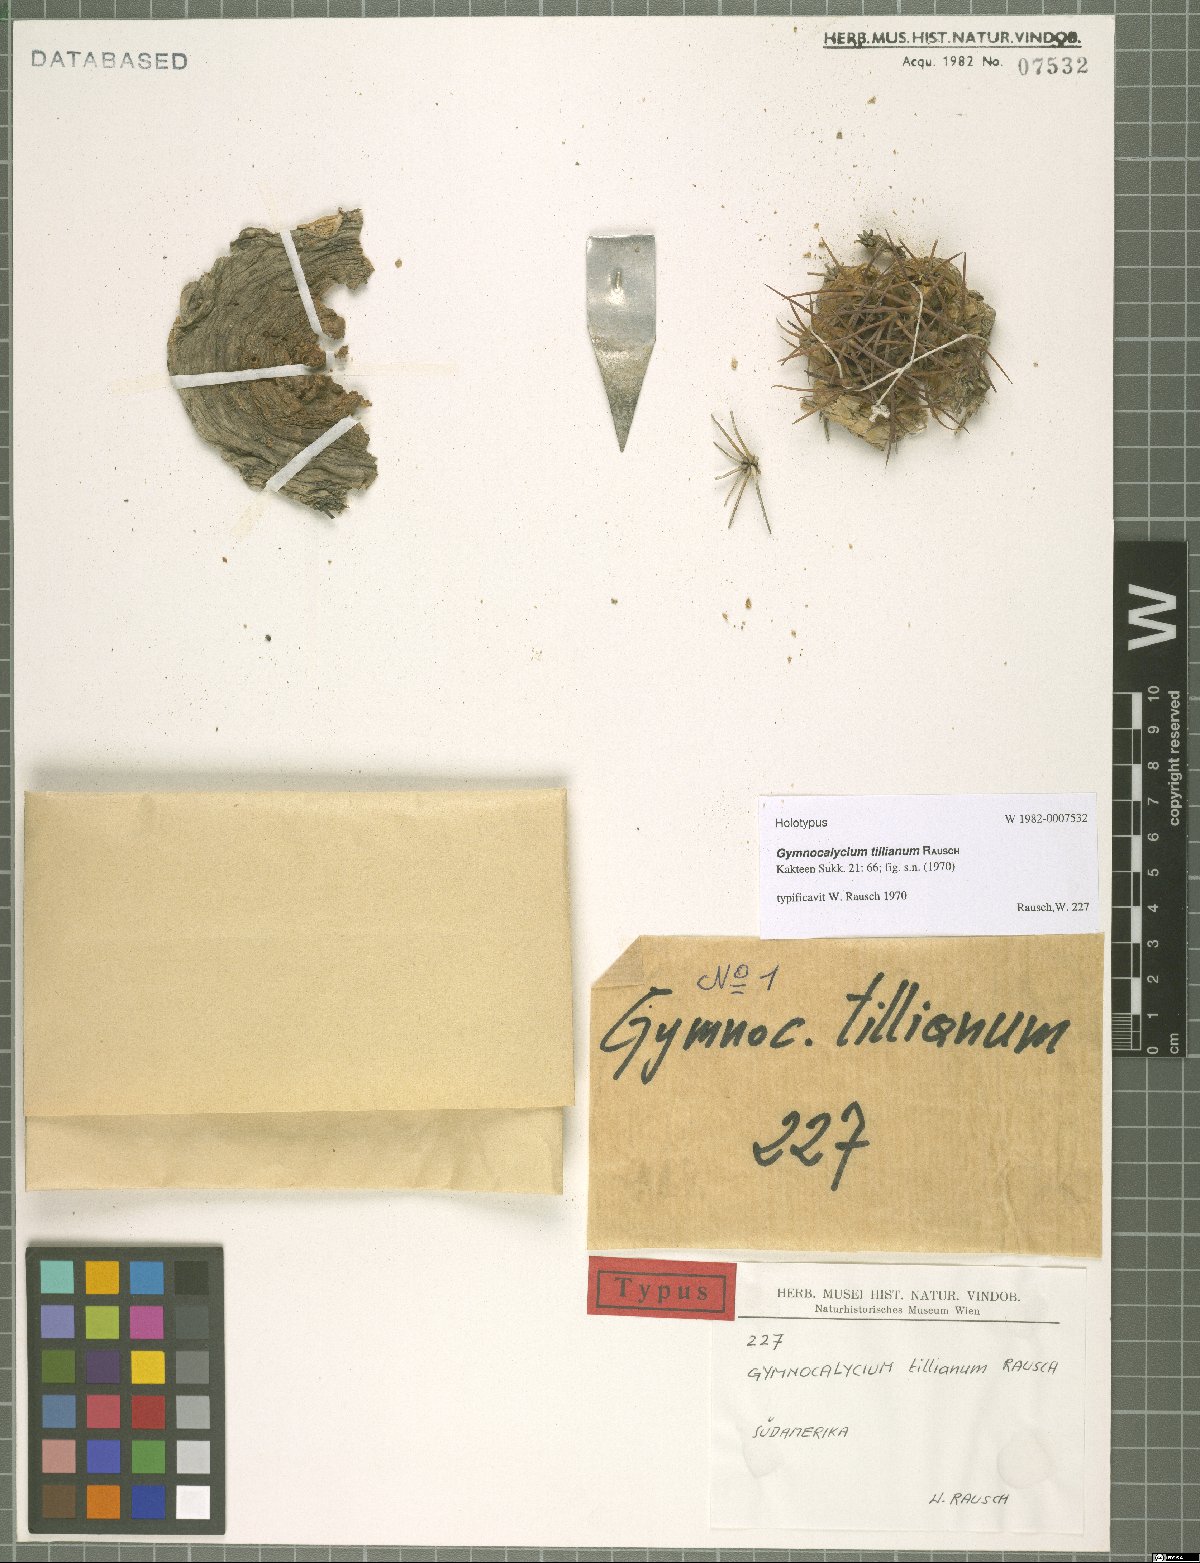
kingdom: Plantae
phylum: Tracheophyta
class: Magnoliopsida
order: Caryophyllales
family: Cactaceae
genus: Gymnocalycium
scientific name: Gymnocalycium oenanthemum
